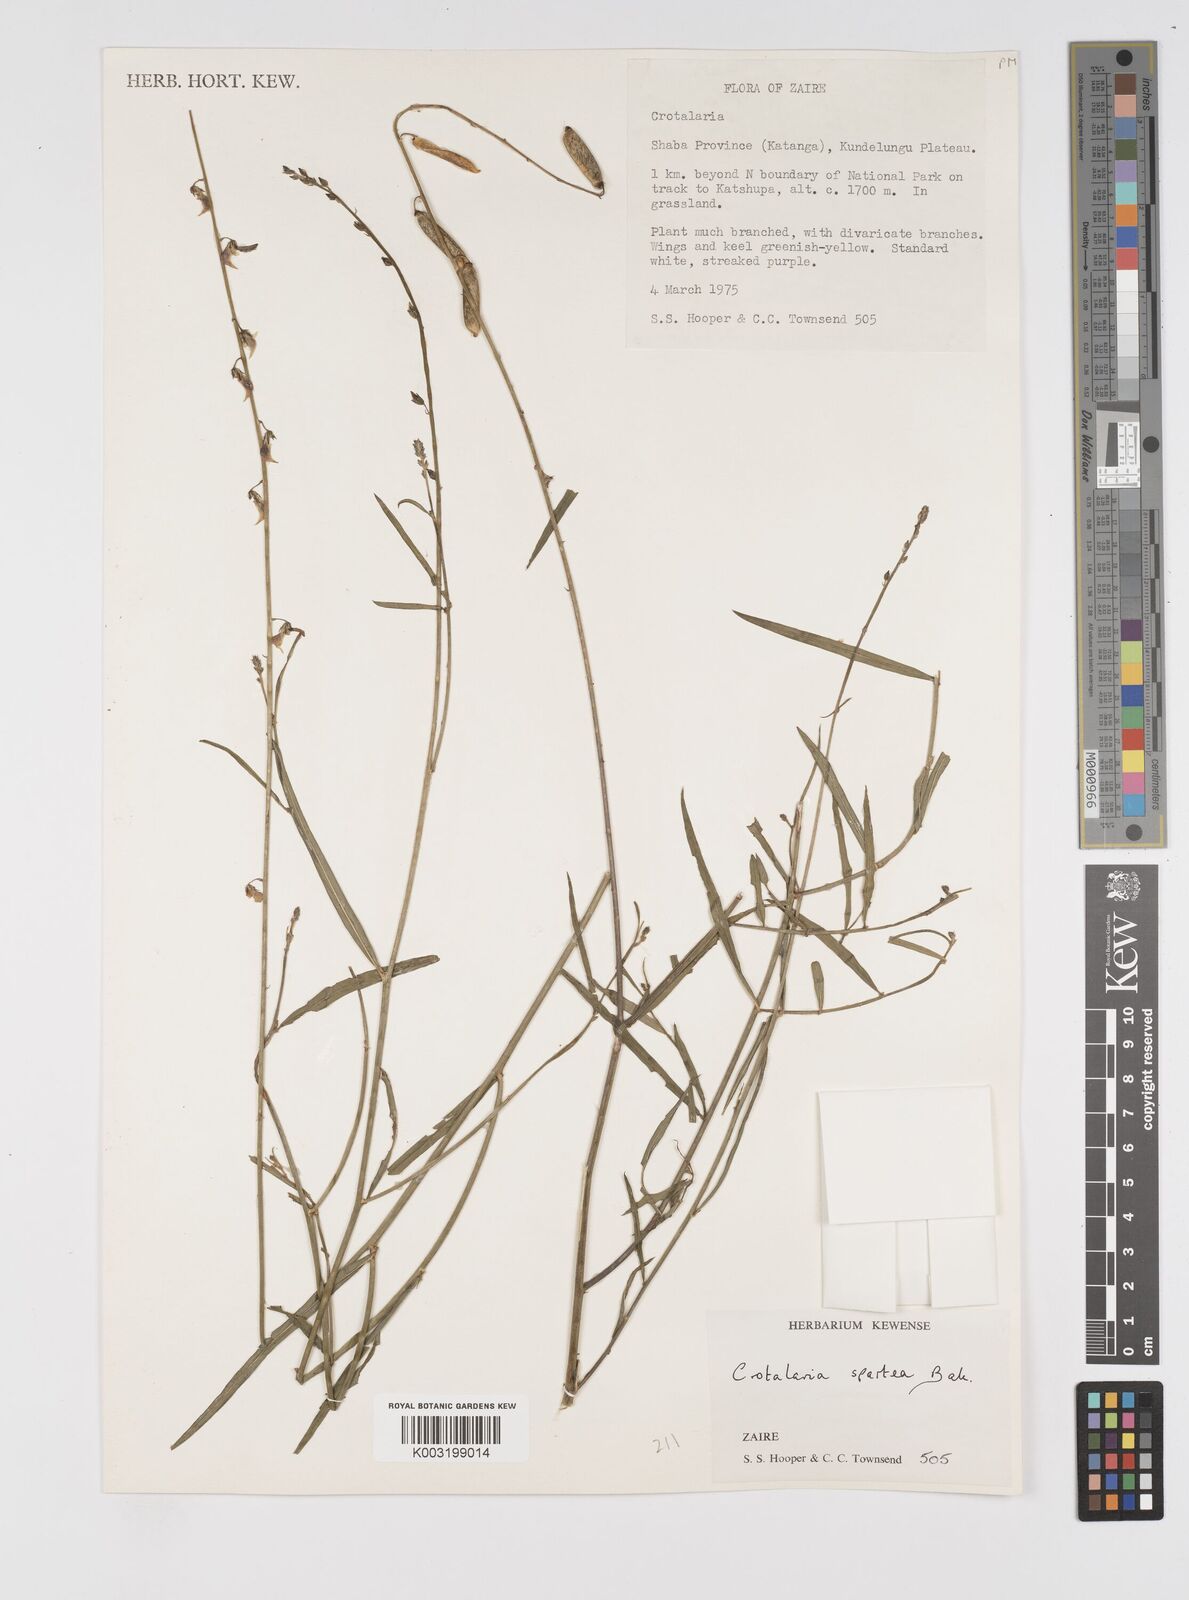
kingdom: Plantae
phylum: Tracheophyta
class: Magnoliopsida
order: Fabales
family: Fabaceae
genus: Crotalaria
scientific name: Crotalaria spartea
